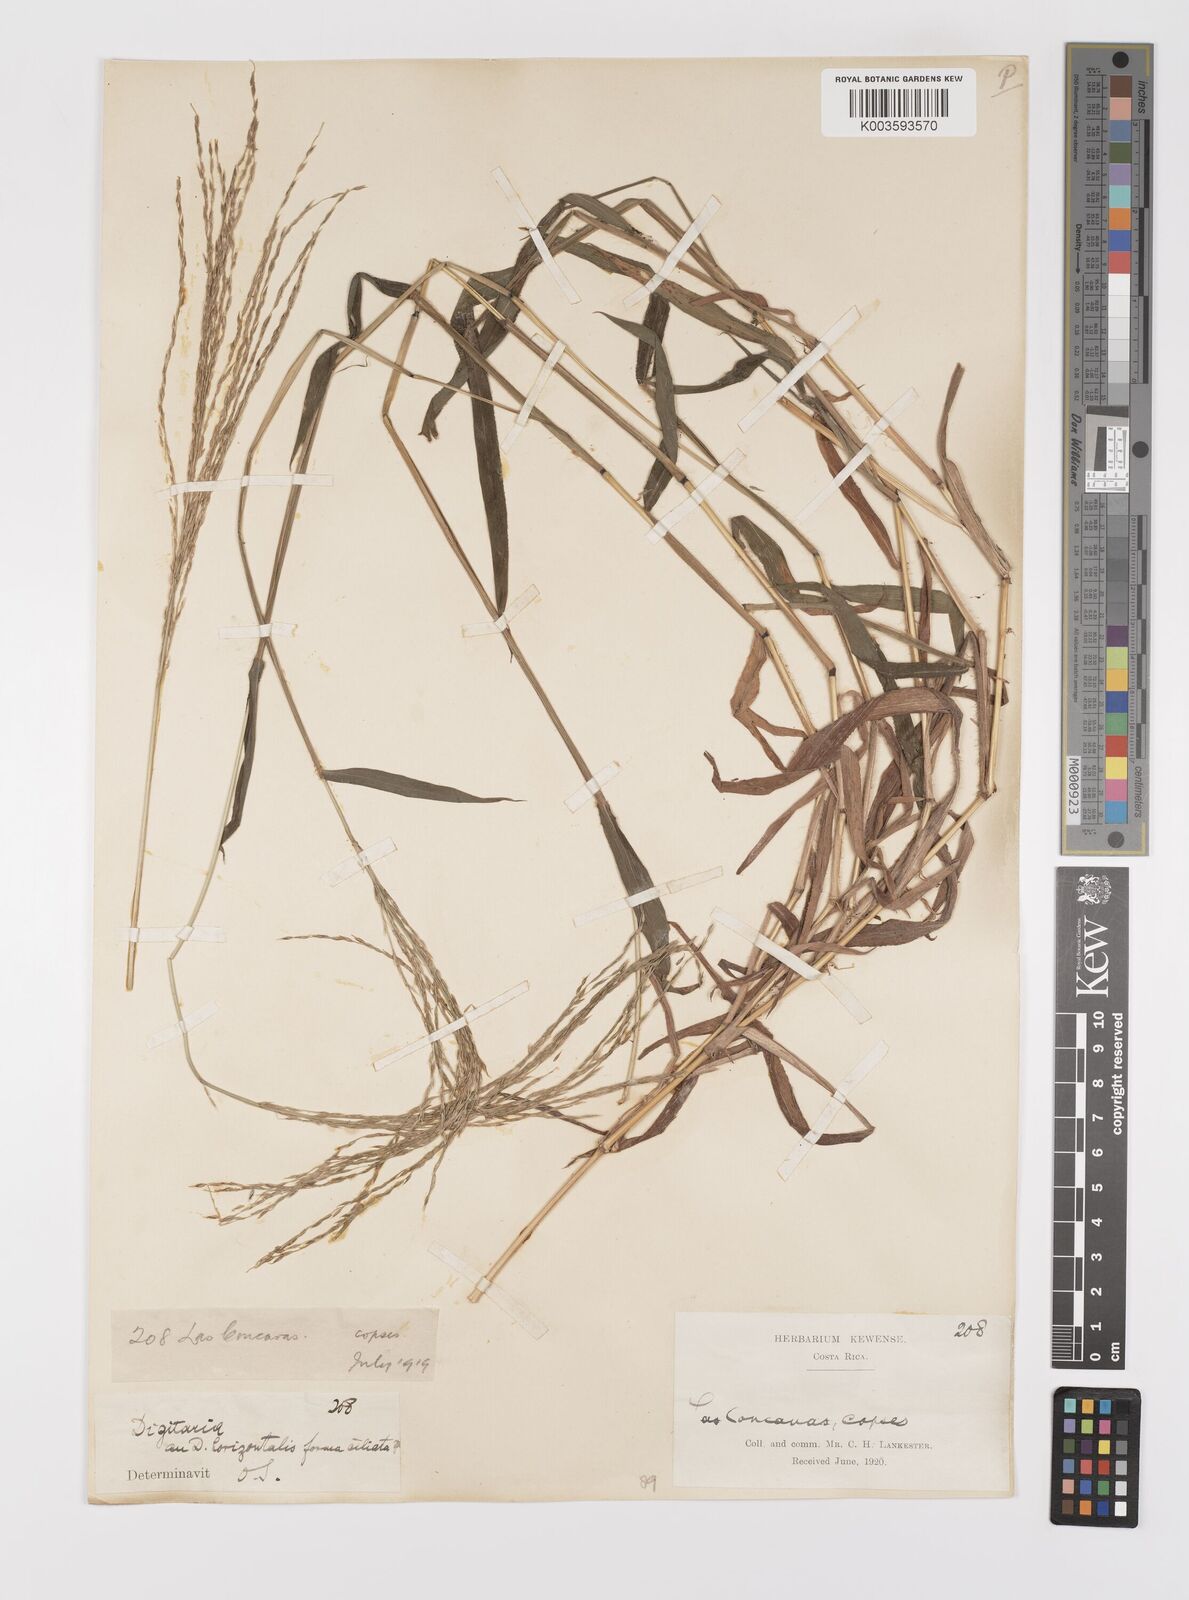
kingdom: Plantae
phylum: Tracheophyta
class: Liliopsida
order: Poales
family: Poaceae
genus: Digitaria
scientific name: Digitaria spec
